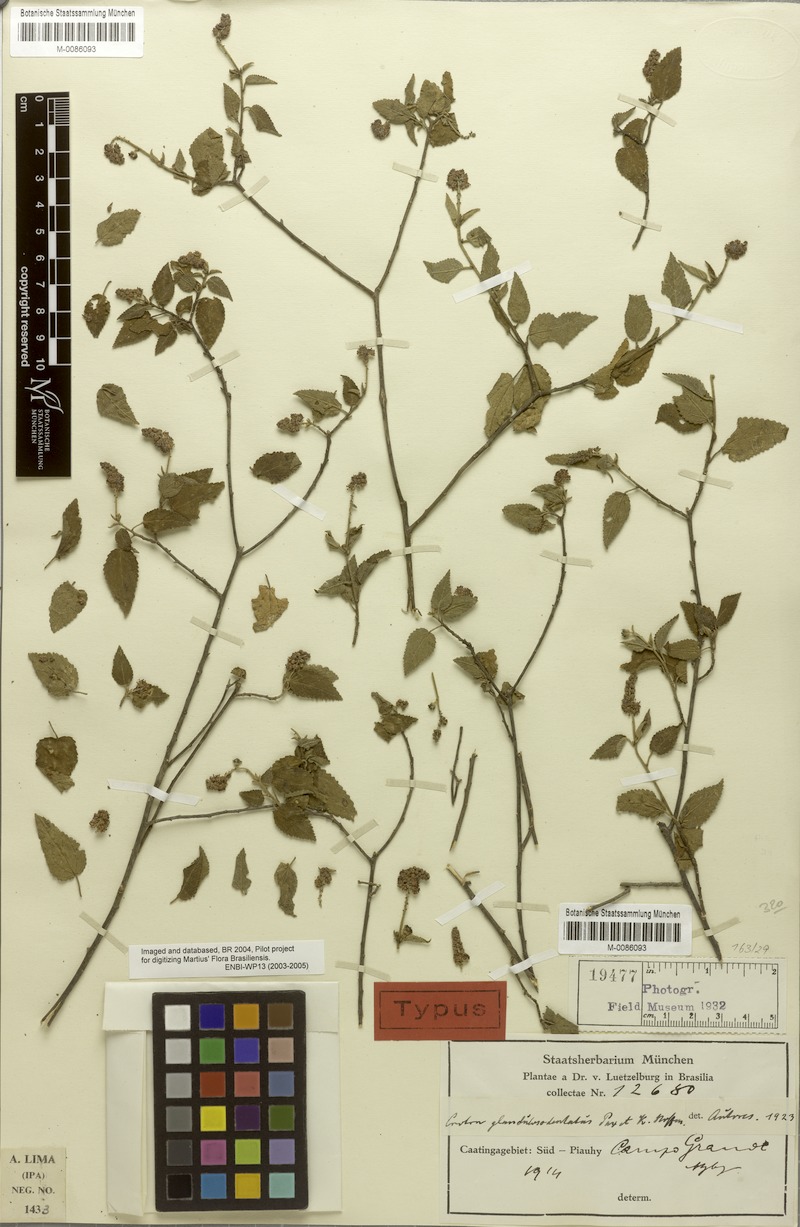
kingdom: Plantae
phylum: Tracheophyta
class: Magnoliopsida
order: Malpighiales
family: Euphorbiaceae
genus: Croton
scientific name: Croton glandulosodentatus
